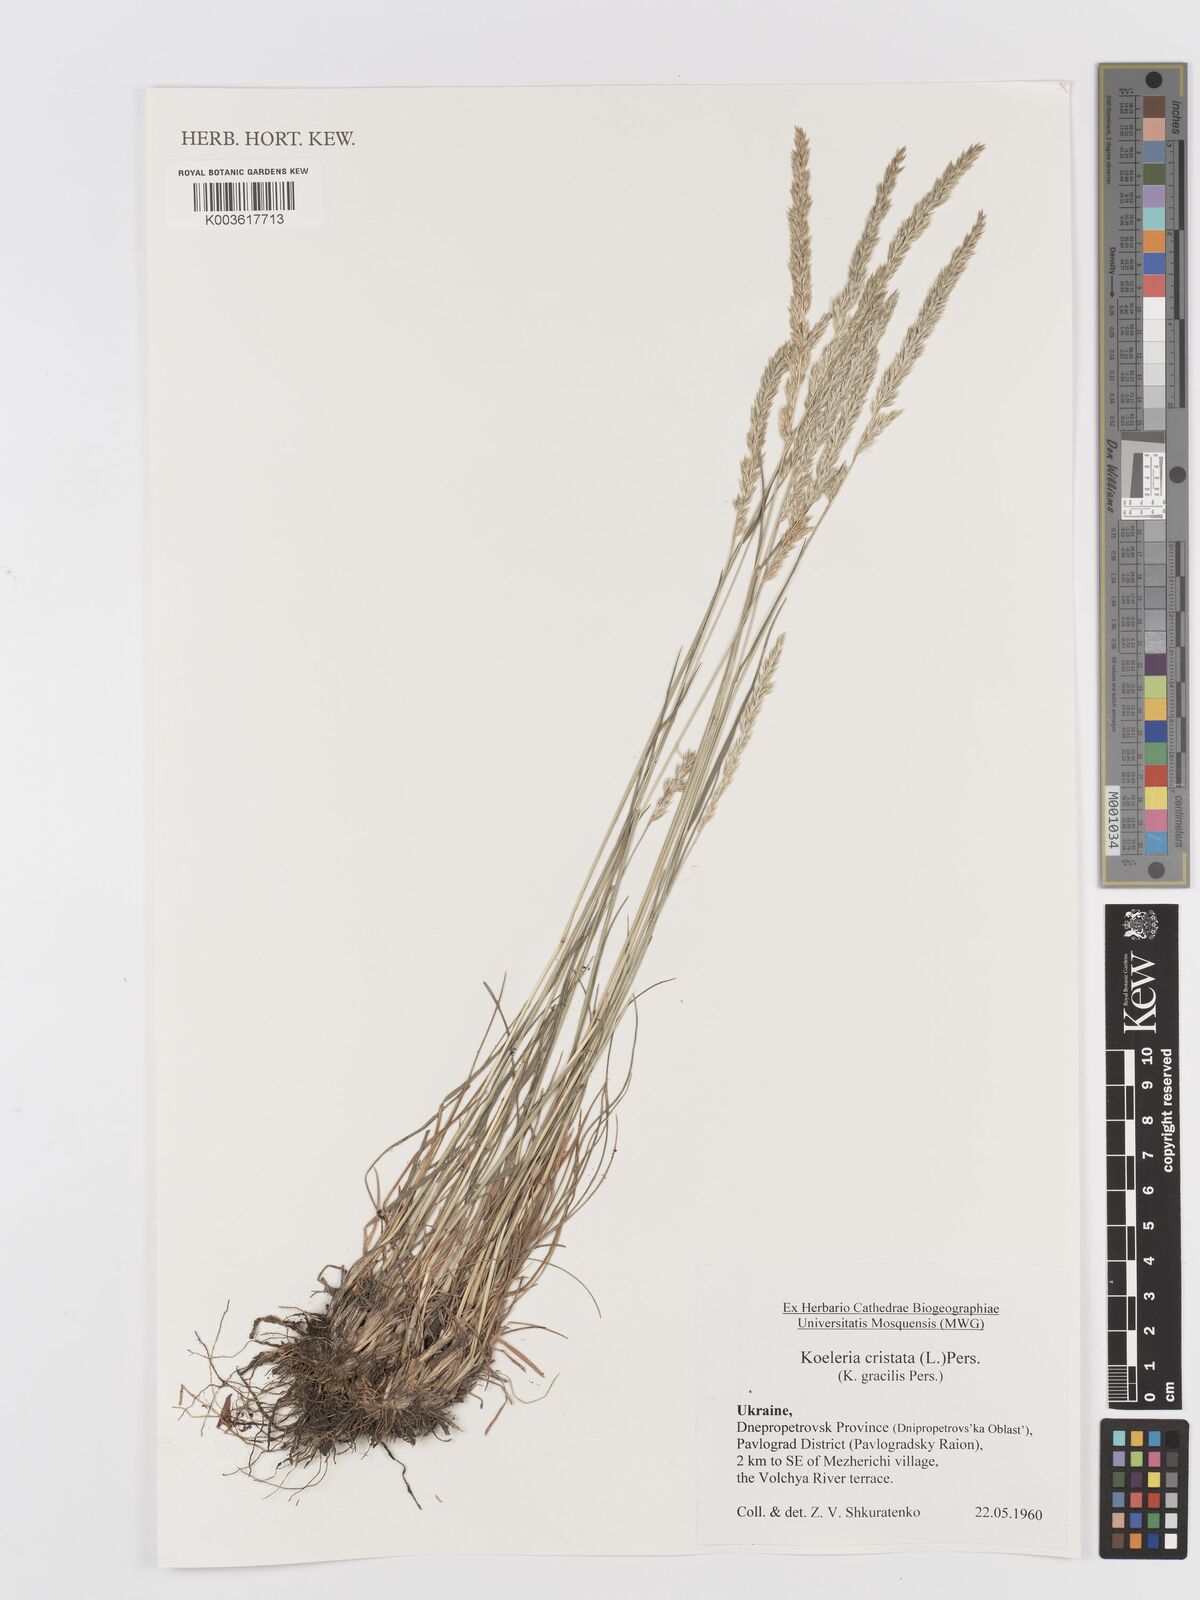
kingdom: Plantae
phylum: Tracheophyta
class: Liliopsida
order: Poales
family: Poaceae
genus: Koeleria
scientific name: Koeleria pyramidata
